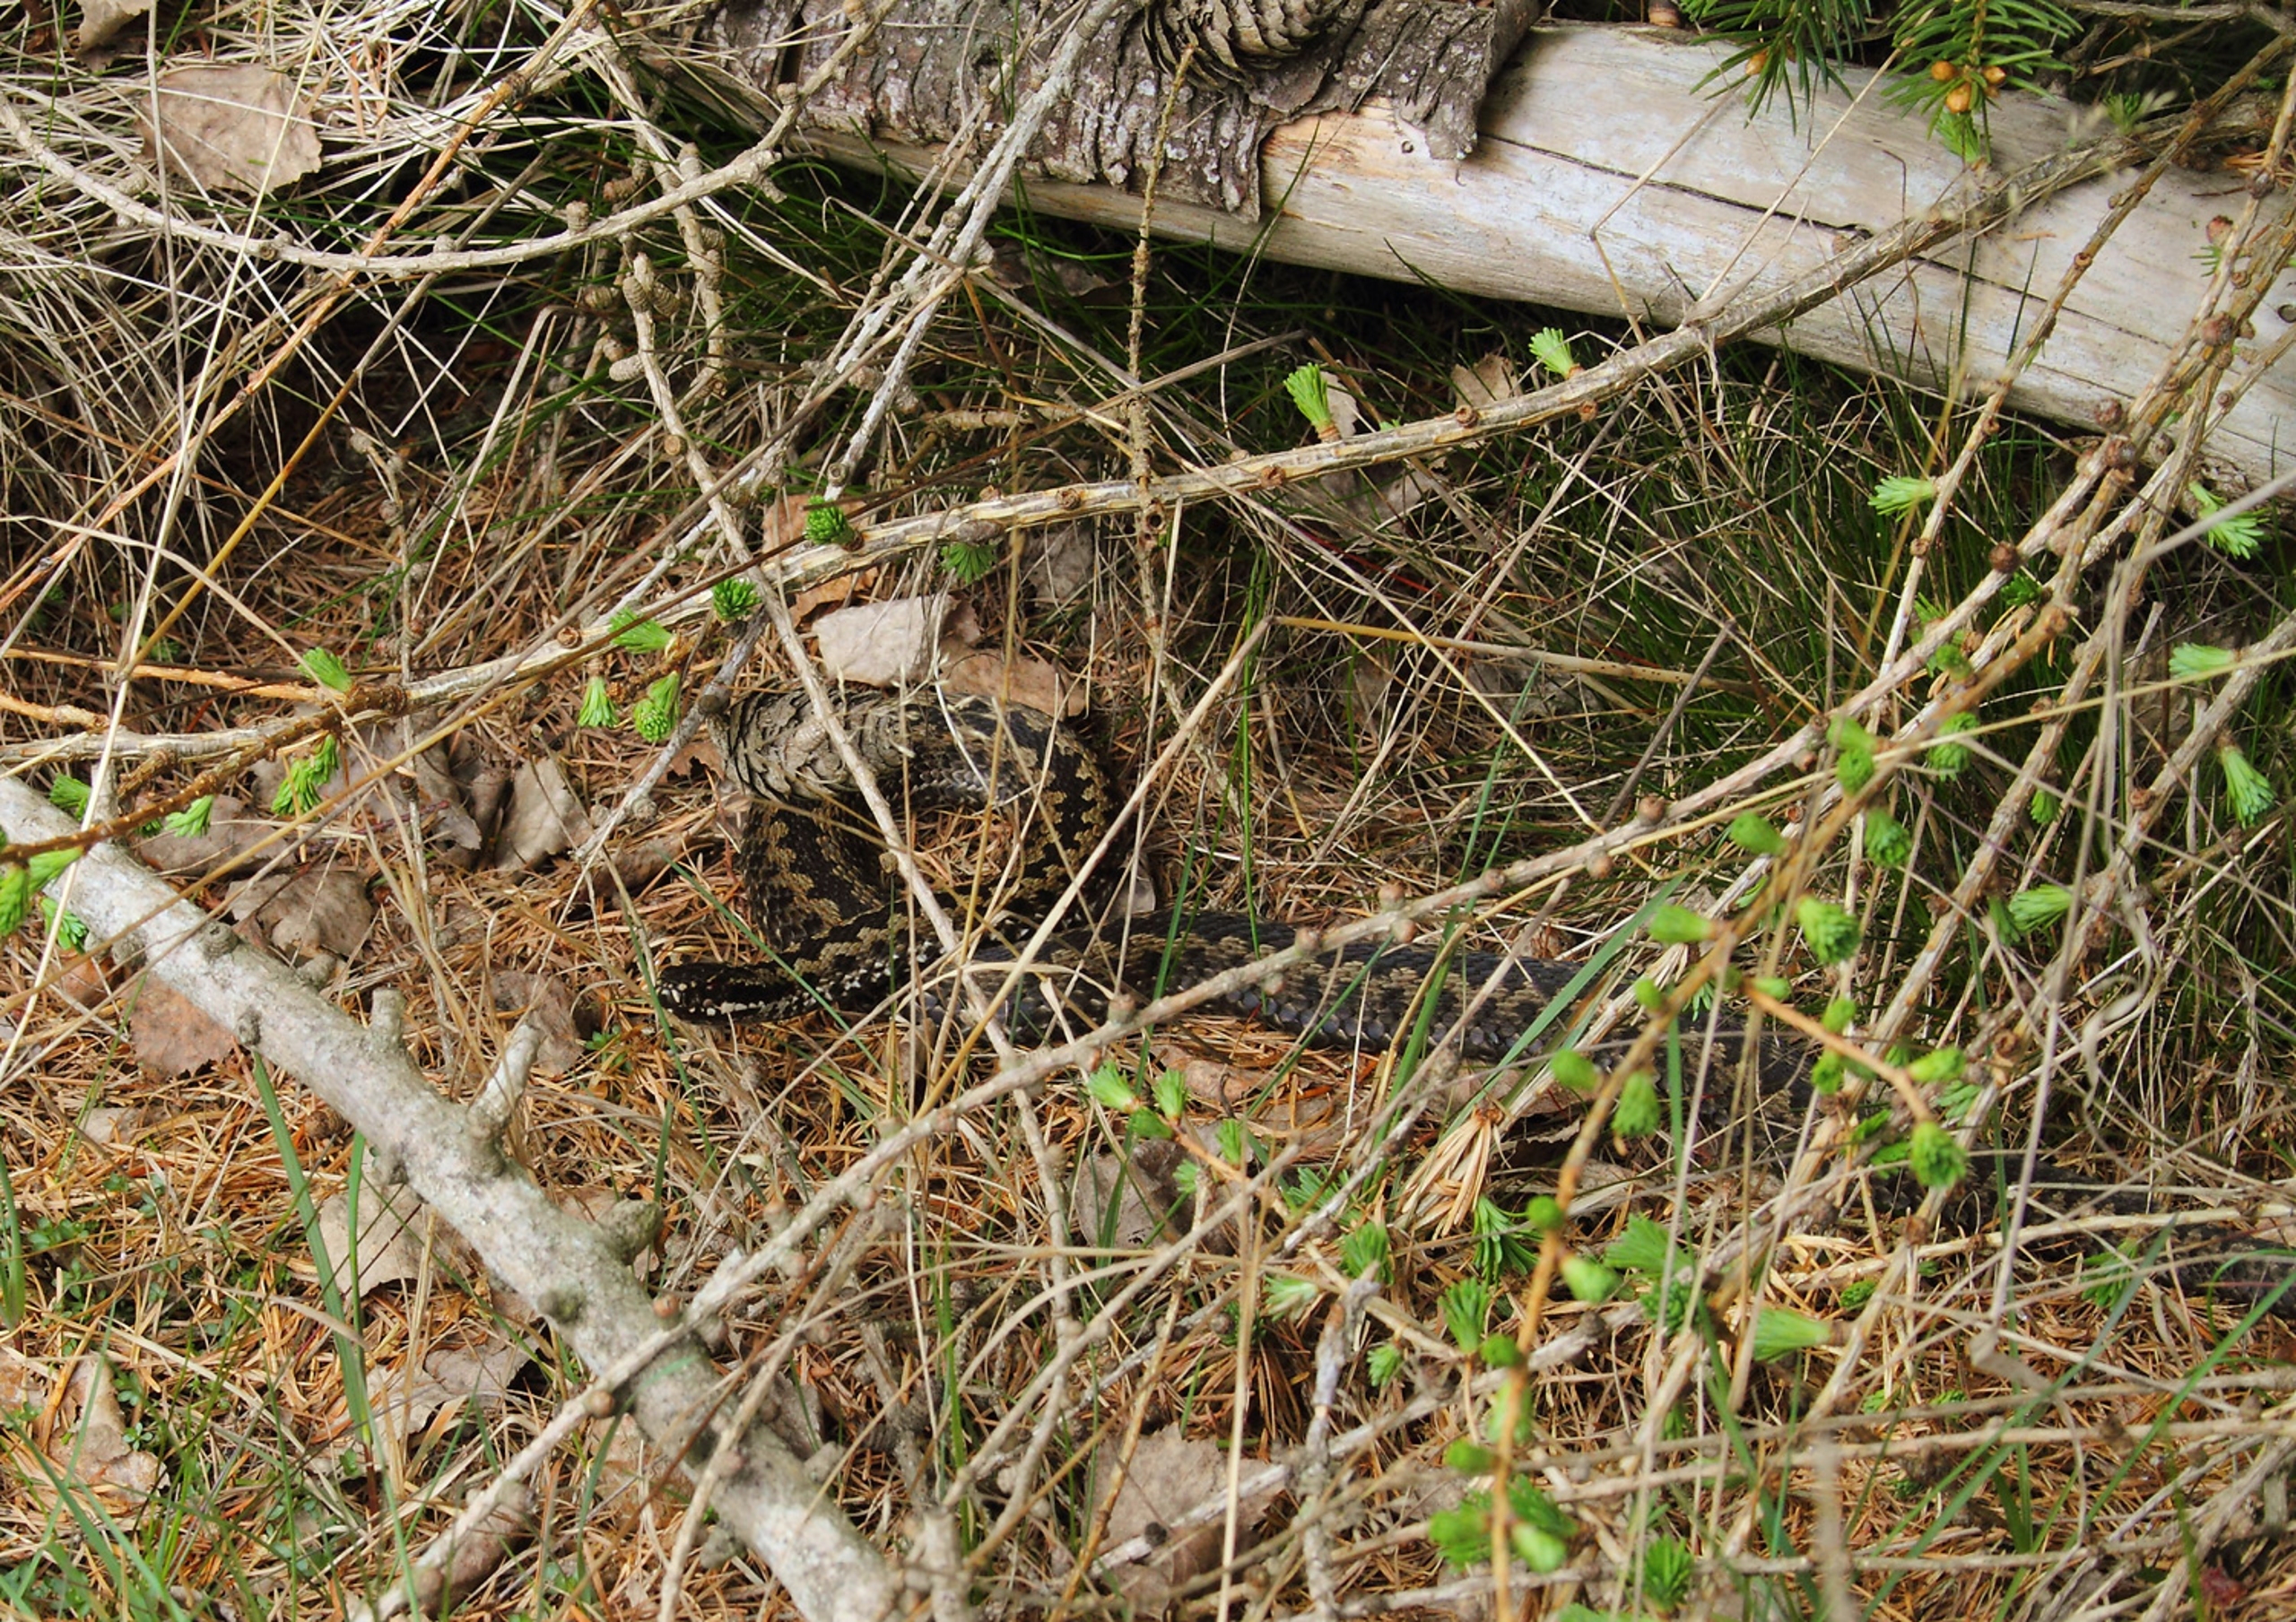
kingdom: Animalia
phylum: Chordata
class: Squamata
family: Viperidae
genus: Vipera
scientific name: Vipera berus
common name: Hugorm
